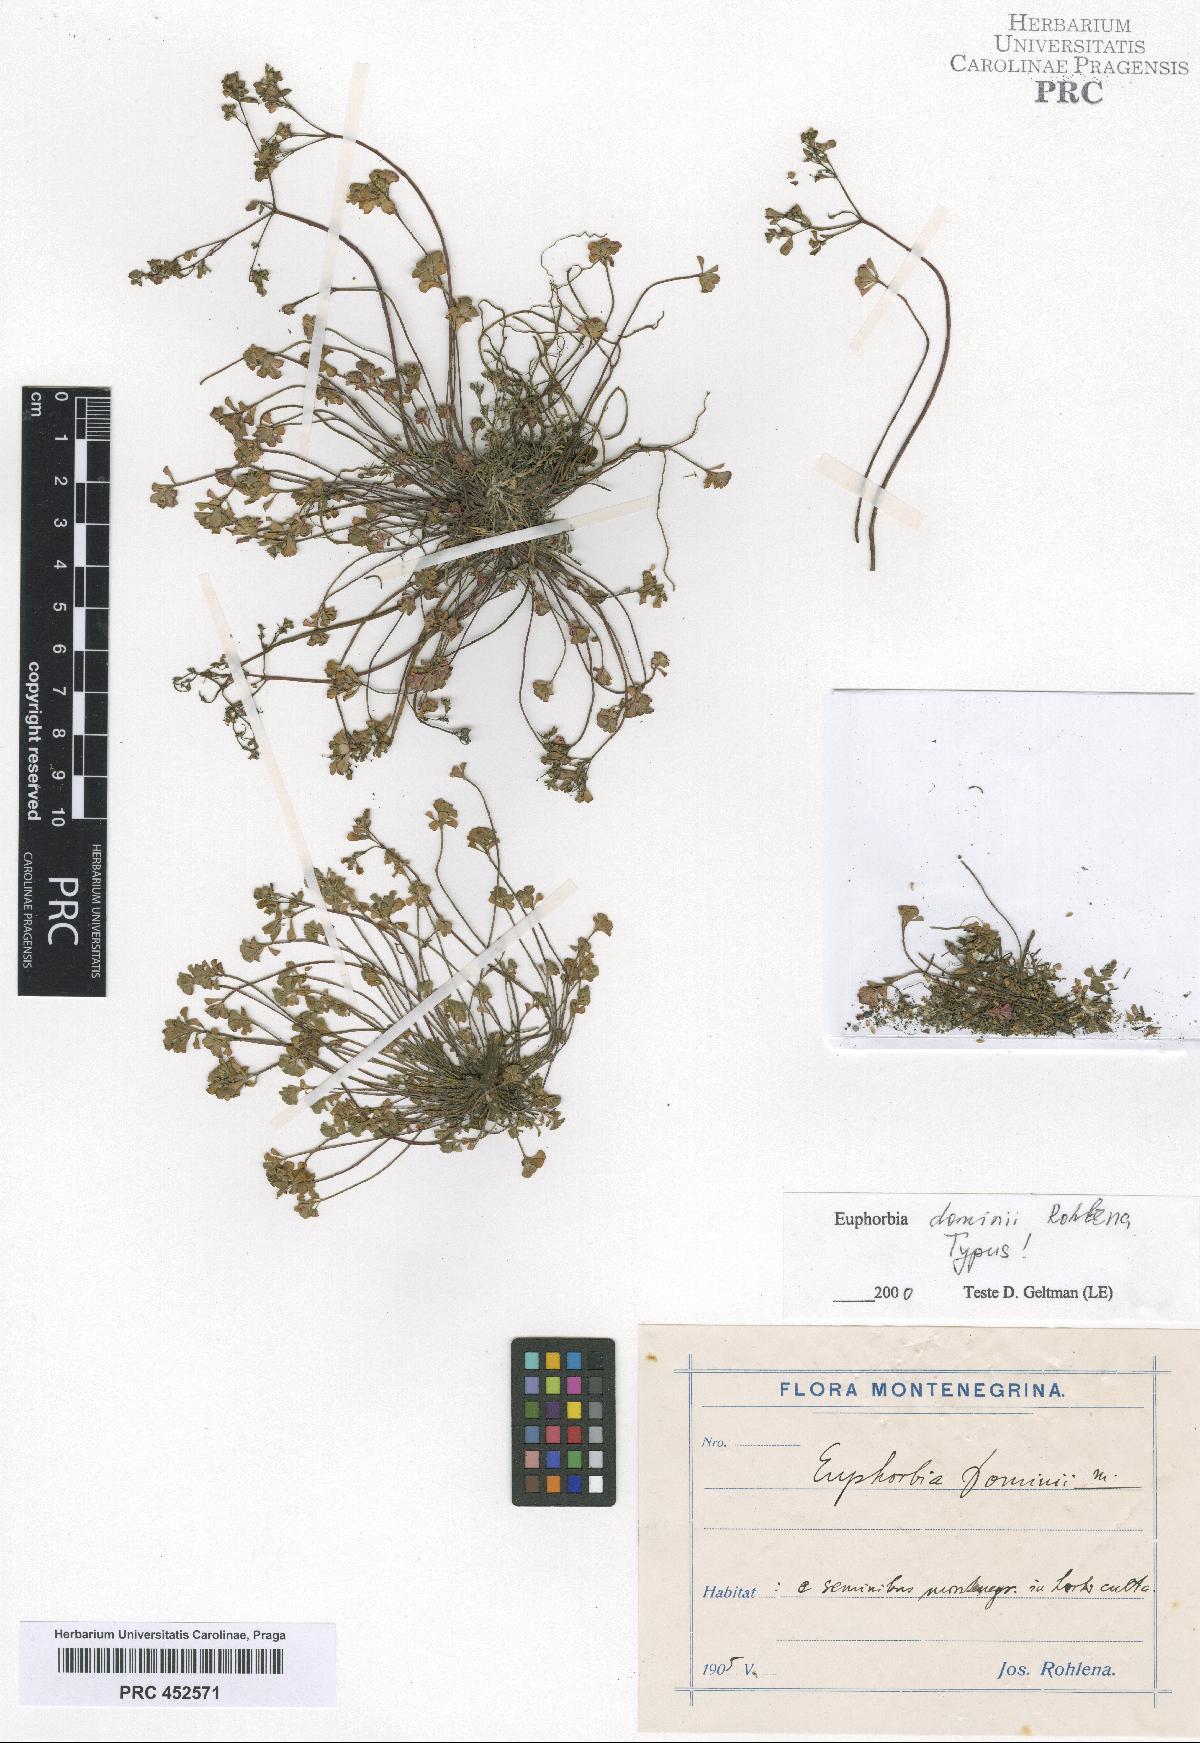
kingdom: Plantae
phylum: Tracheophyta
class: Magnoliopsida
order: Malpighiales
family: Euphorbiaceae
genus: Euphorbia
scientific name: Euphorbia helioscopia
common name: Sun spurge
